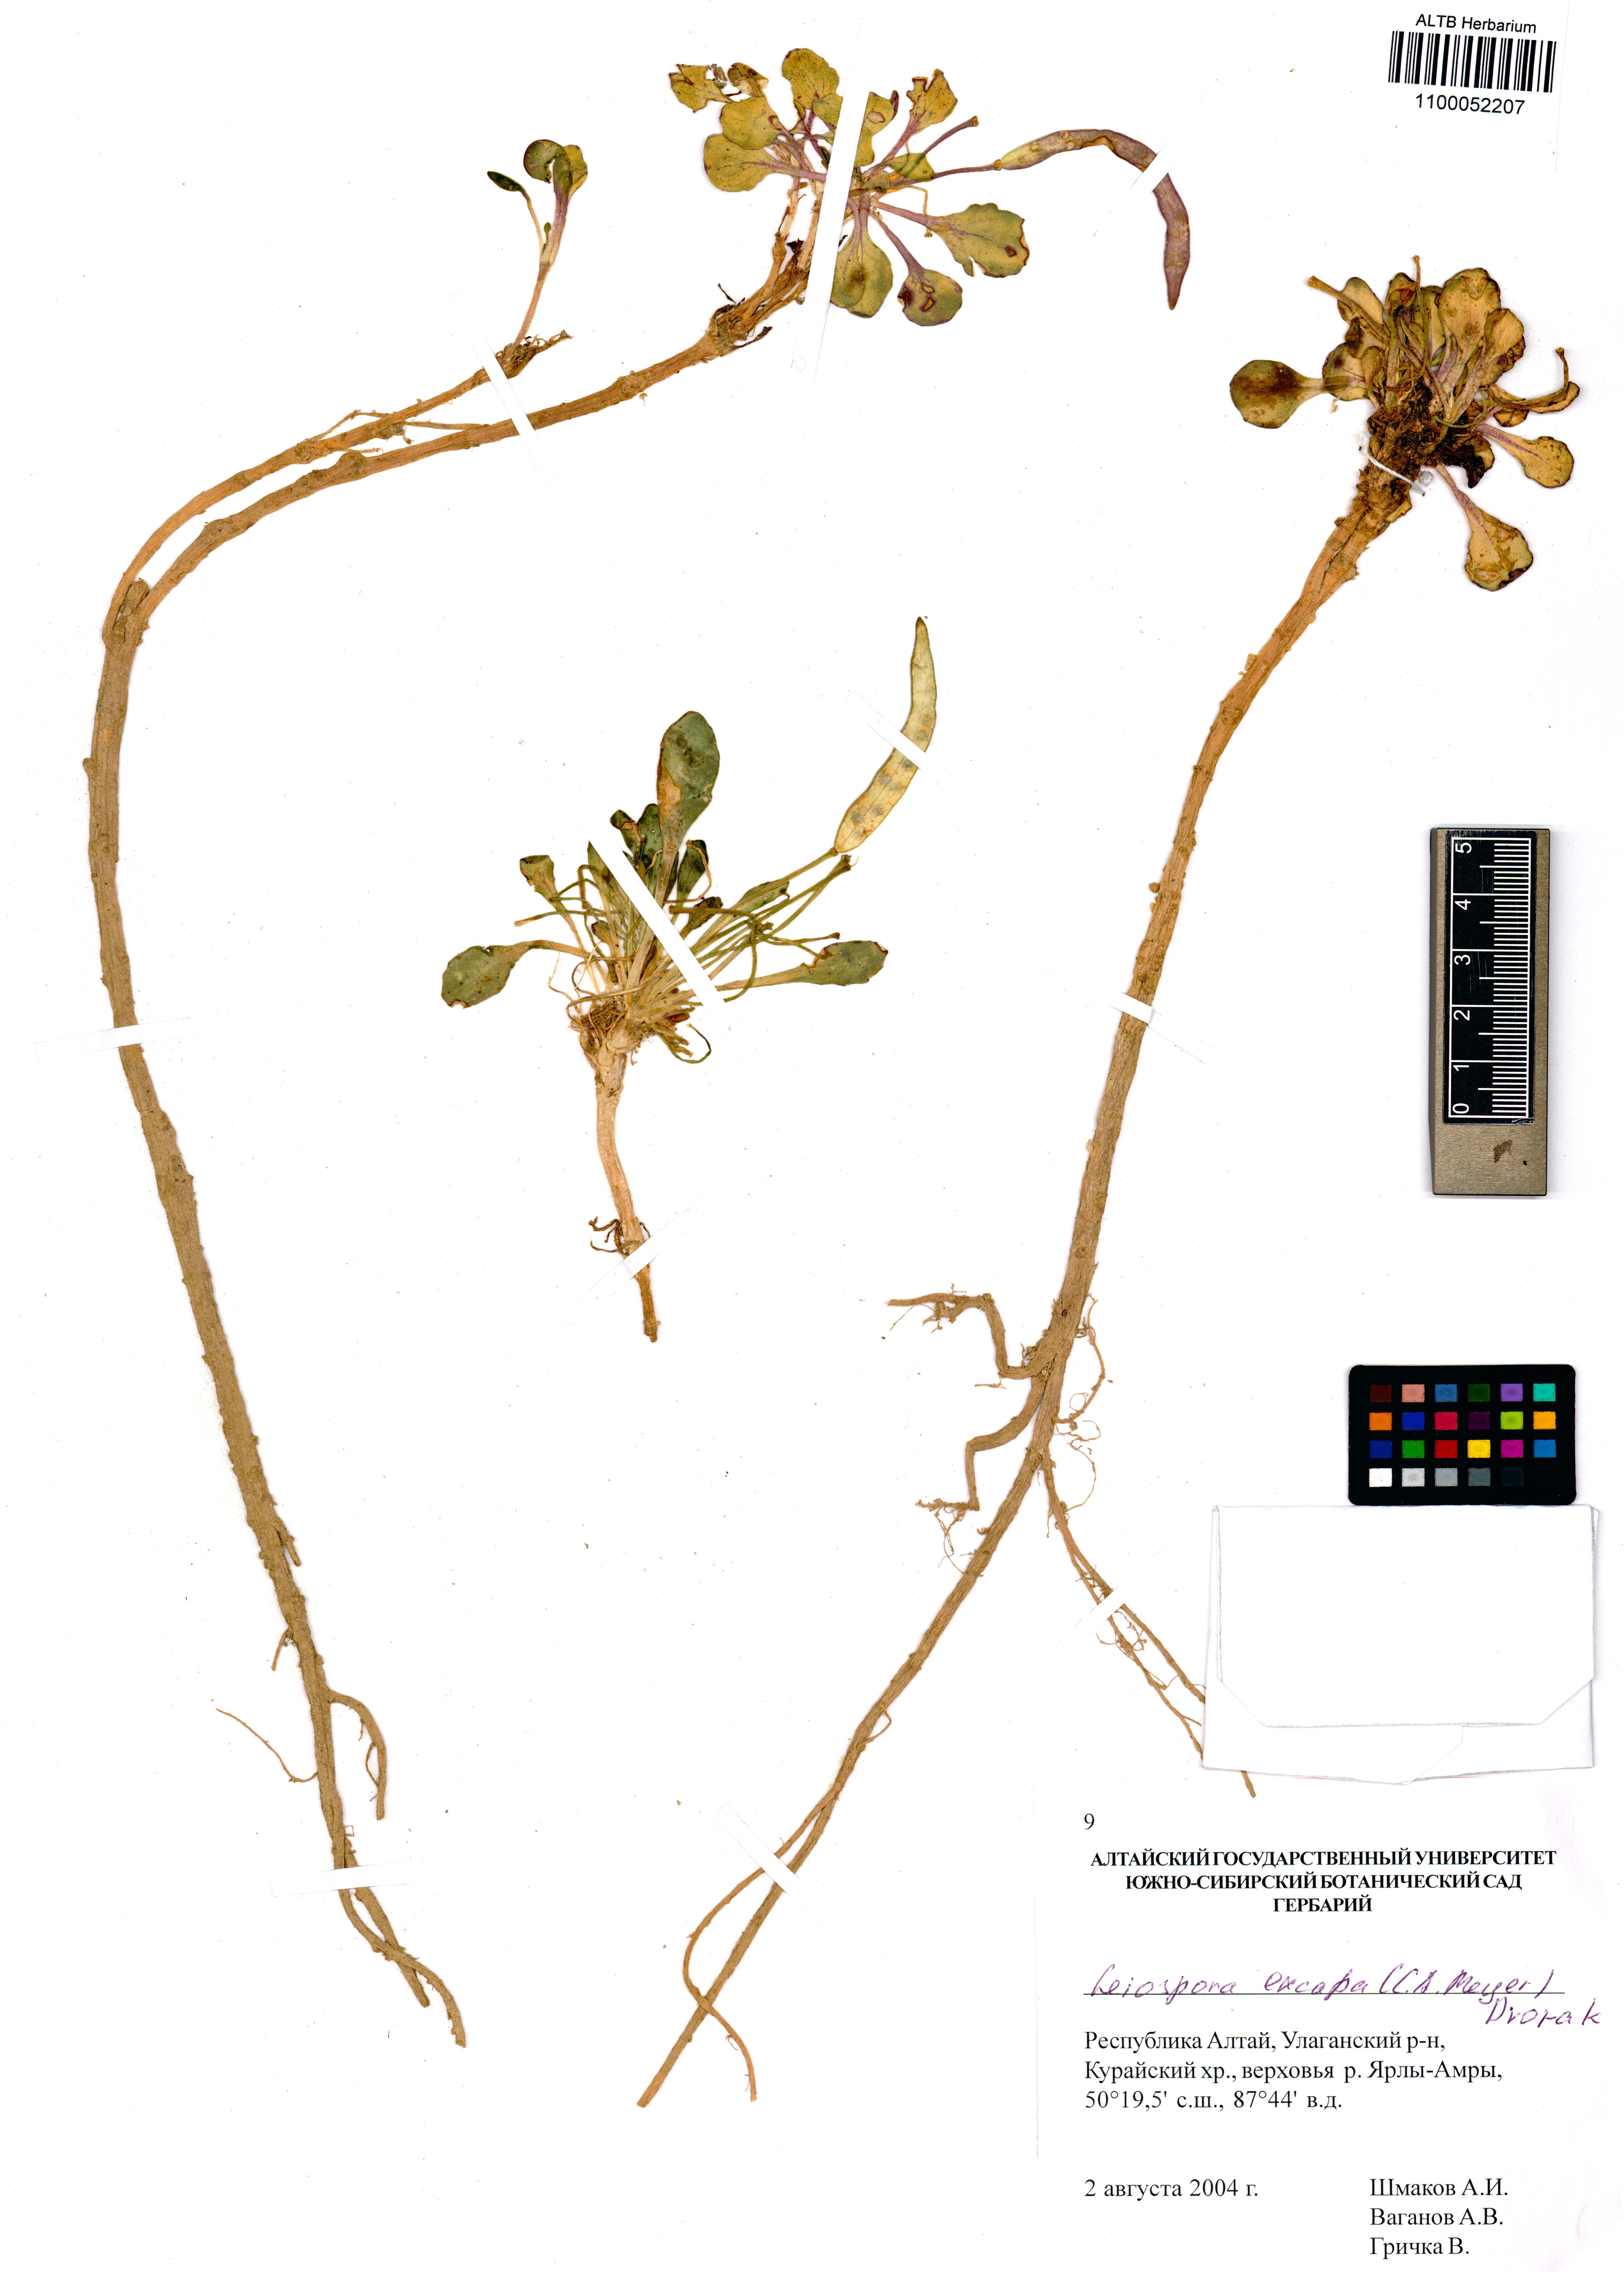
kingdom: Plantae
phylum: Tracheophyta
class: Magnoliopsida
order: Brassicales
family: Brassicaceae
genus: Leiospora
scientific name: Leiospora exscapa
